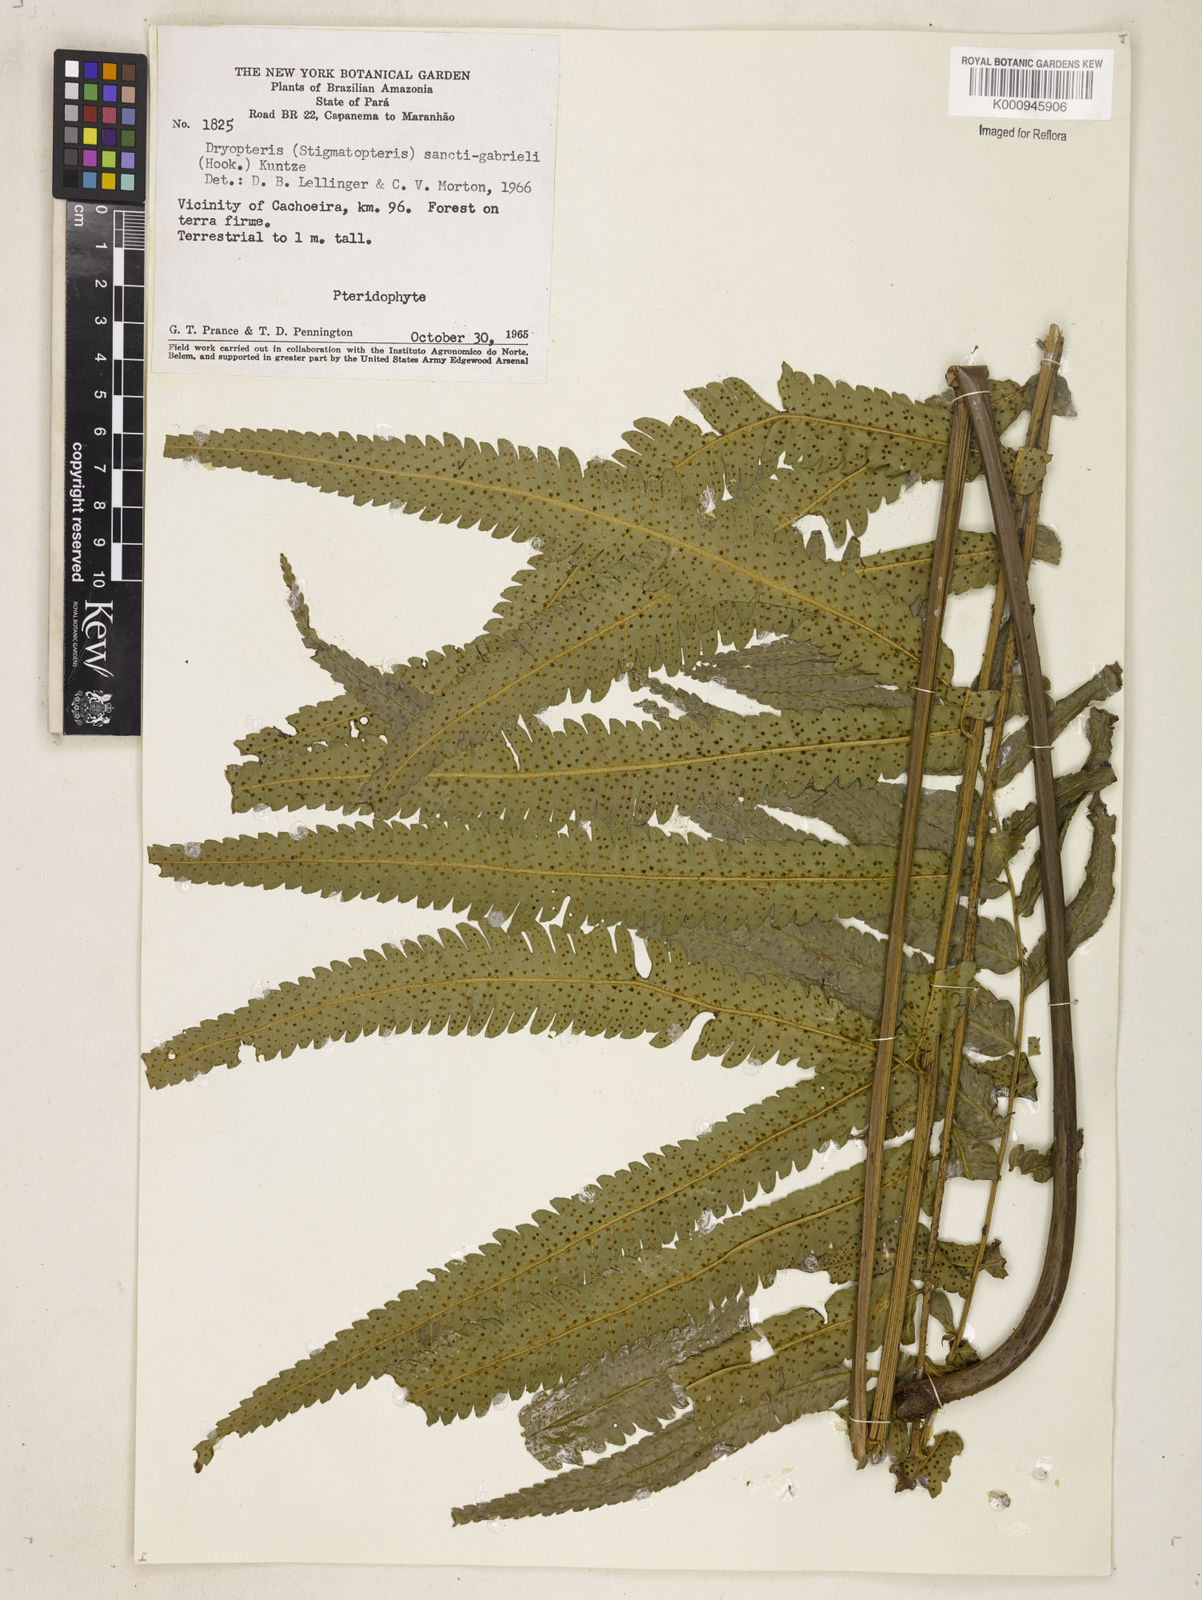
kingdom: Plantae
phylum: Tracheophyta
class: Polypodiopsida
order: Polypodiales
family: Dryopteridaceae
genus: Cyclodium
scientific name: Cyclodium
